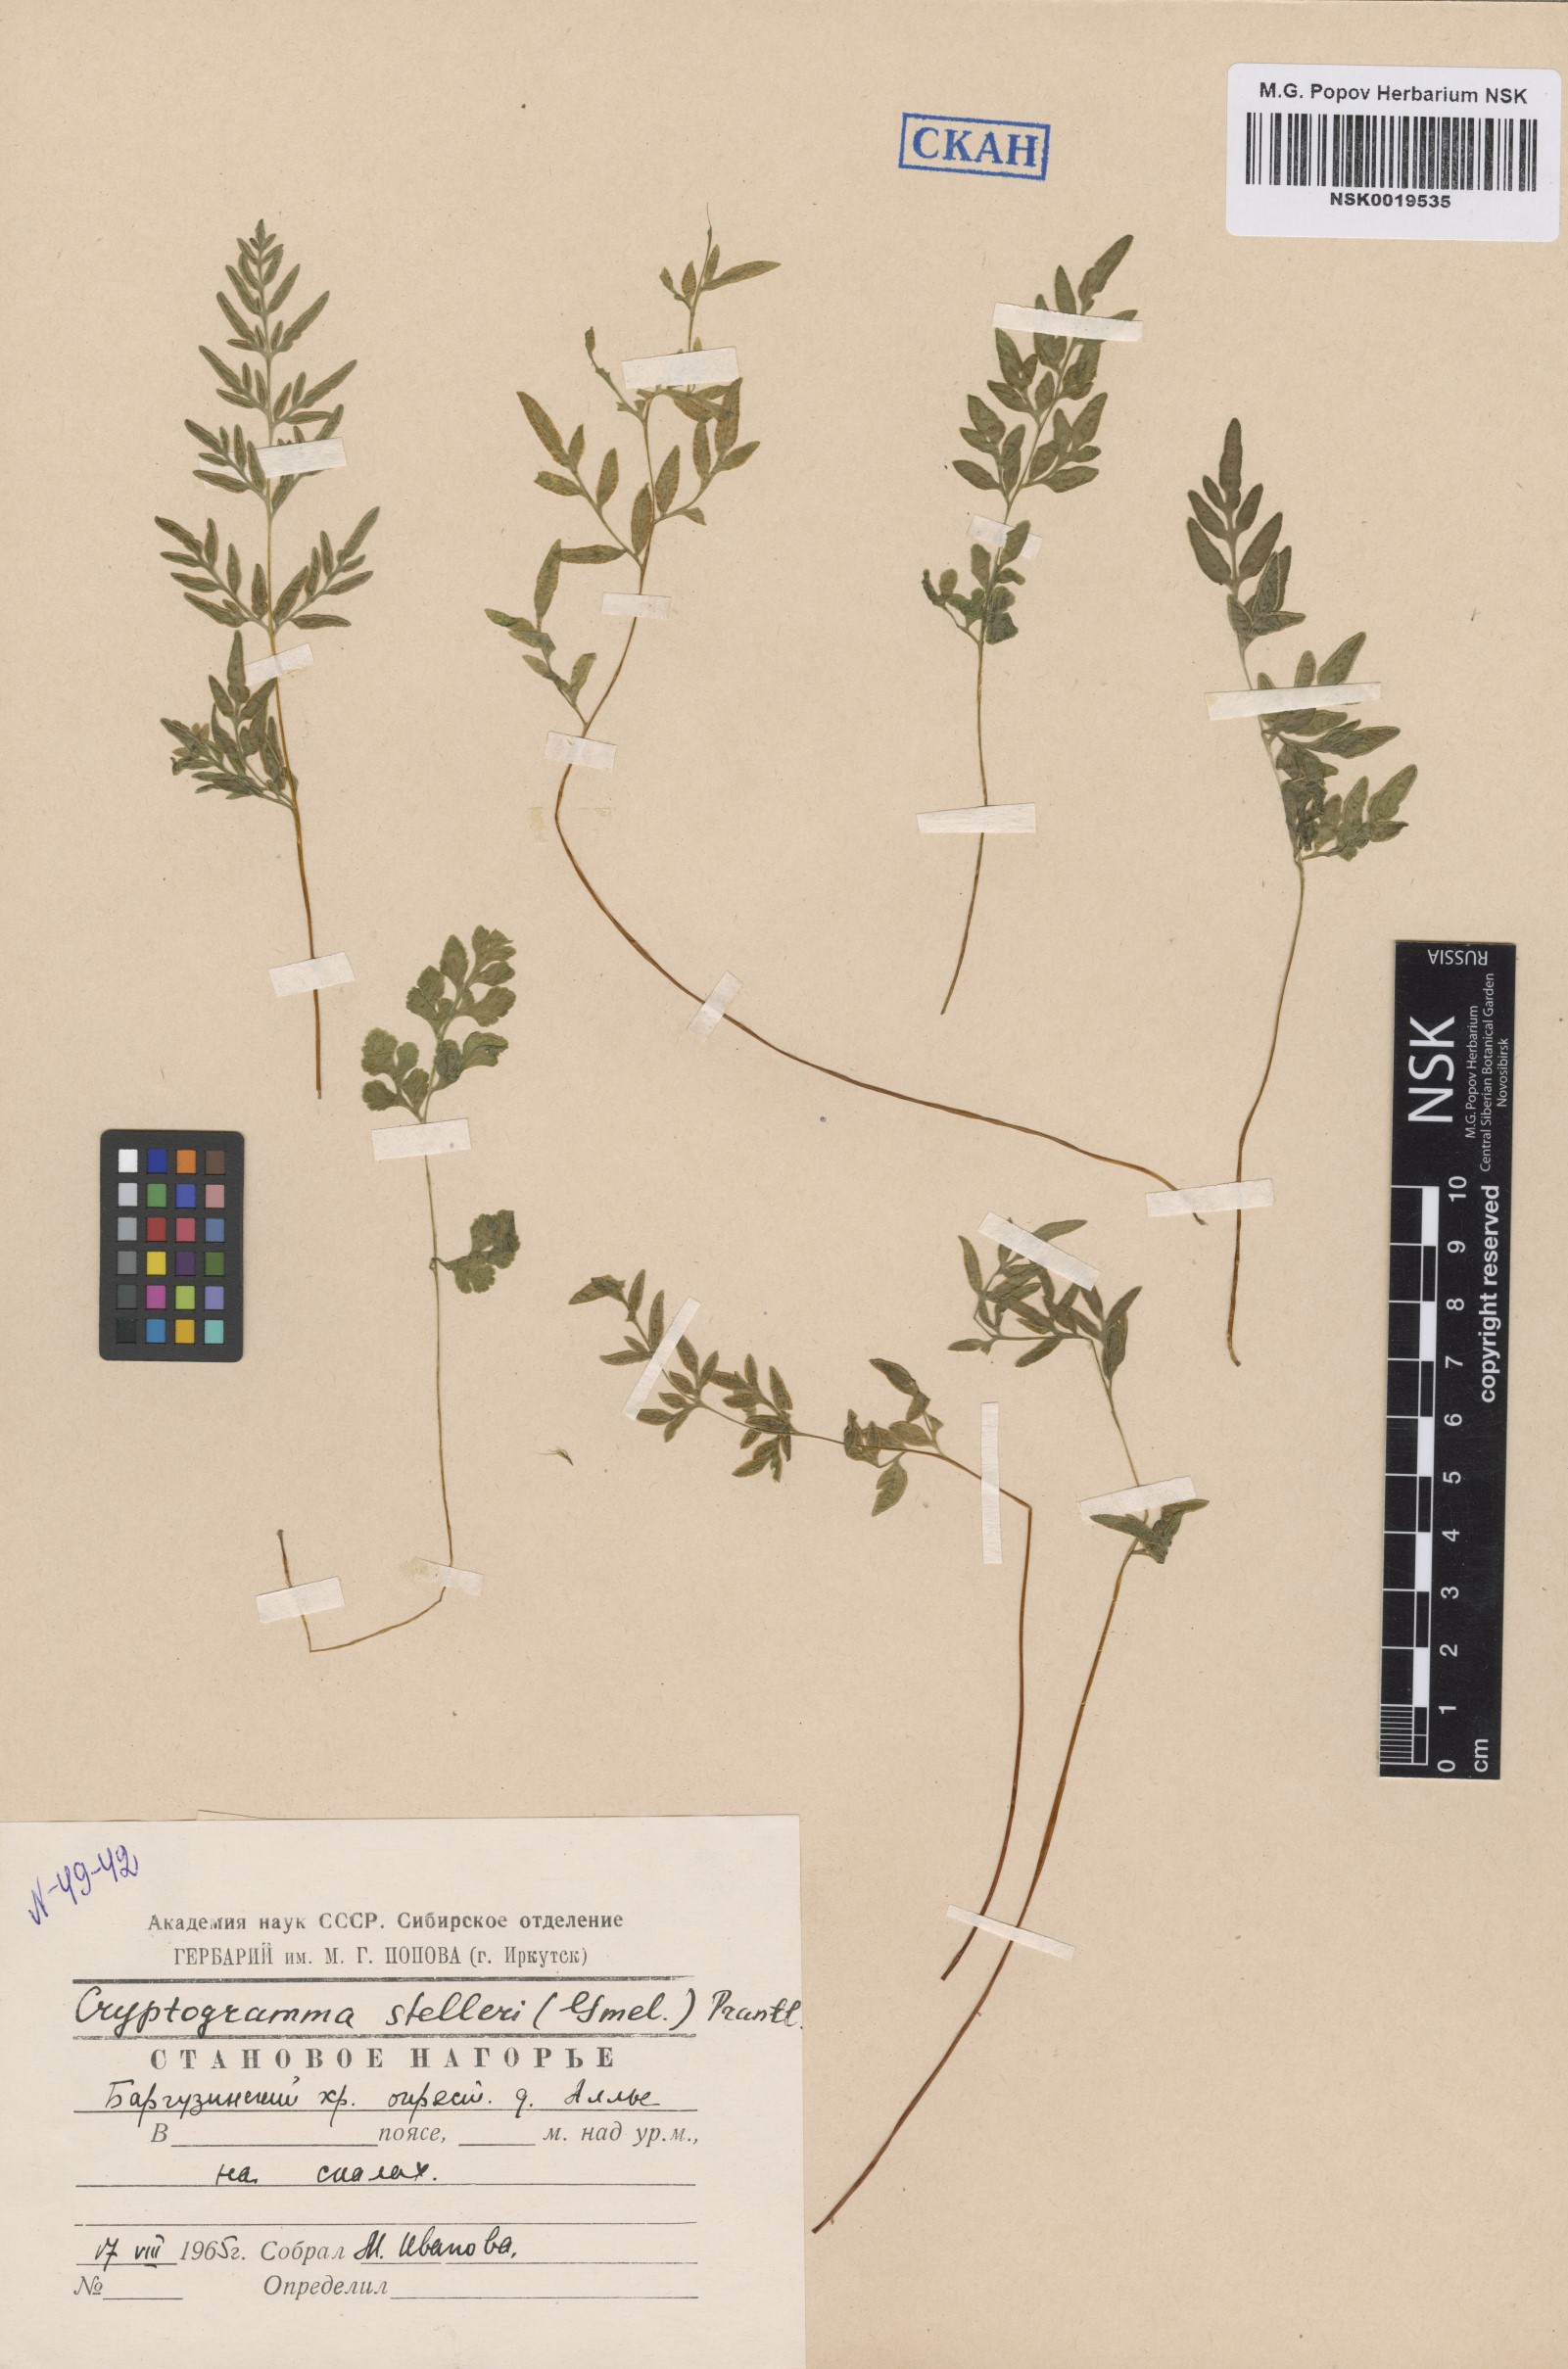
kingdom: Plantae
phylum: Tracheophyta
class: Polypodiopsida
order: Polypodiales
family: Pteridaceae
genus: Cryptogramma
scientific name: Cryptogramma stelleri
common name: Cliff-brake
